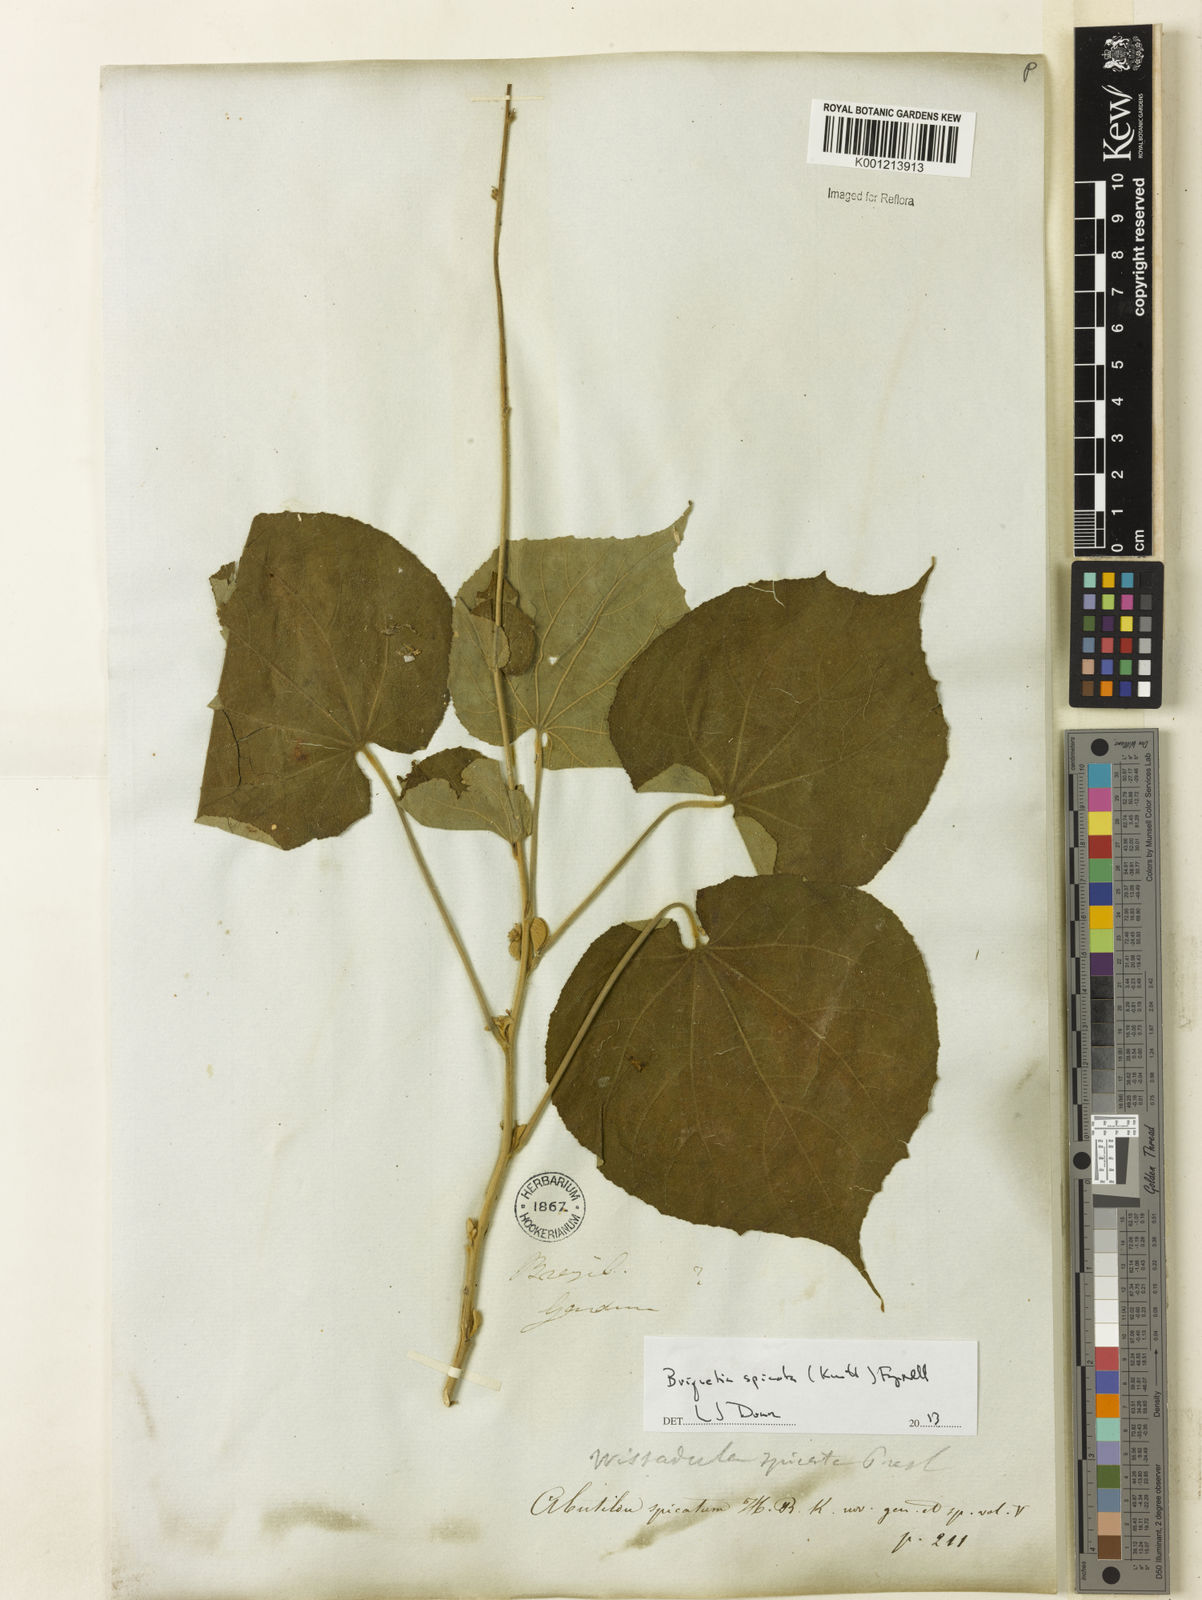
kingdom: Plantae
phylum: Tracheophyta
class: Magnoliopsida
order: Malvales
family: Malvaceae
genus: Allobriquetia
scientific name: Allobriquetia spicata
